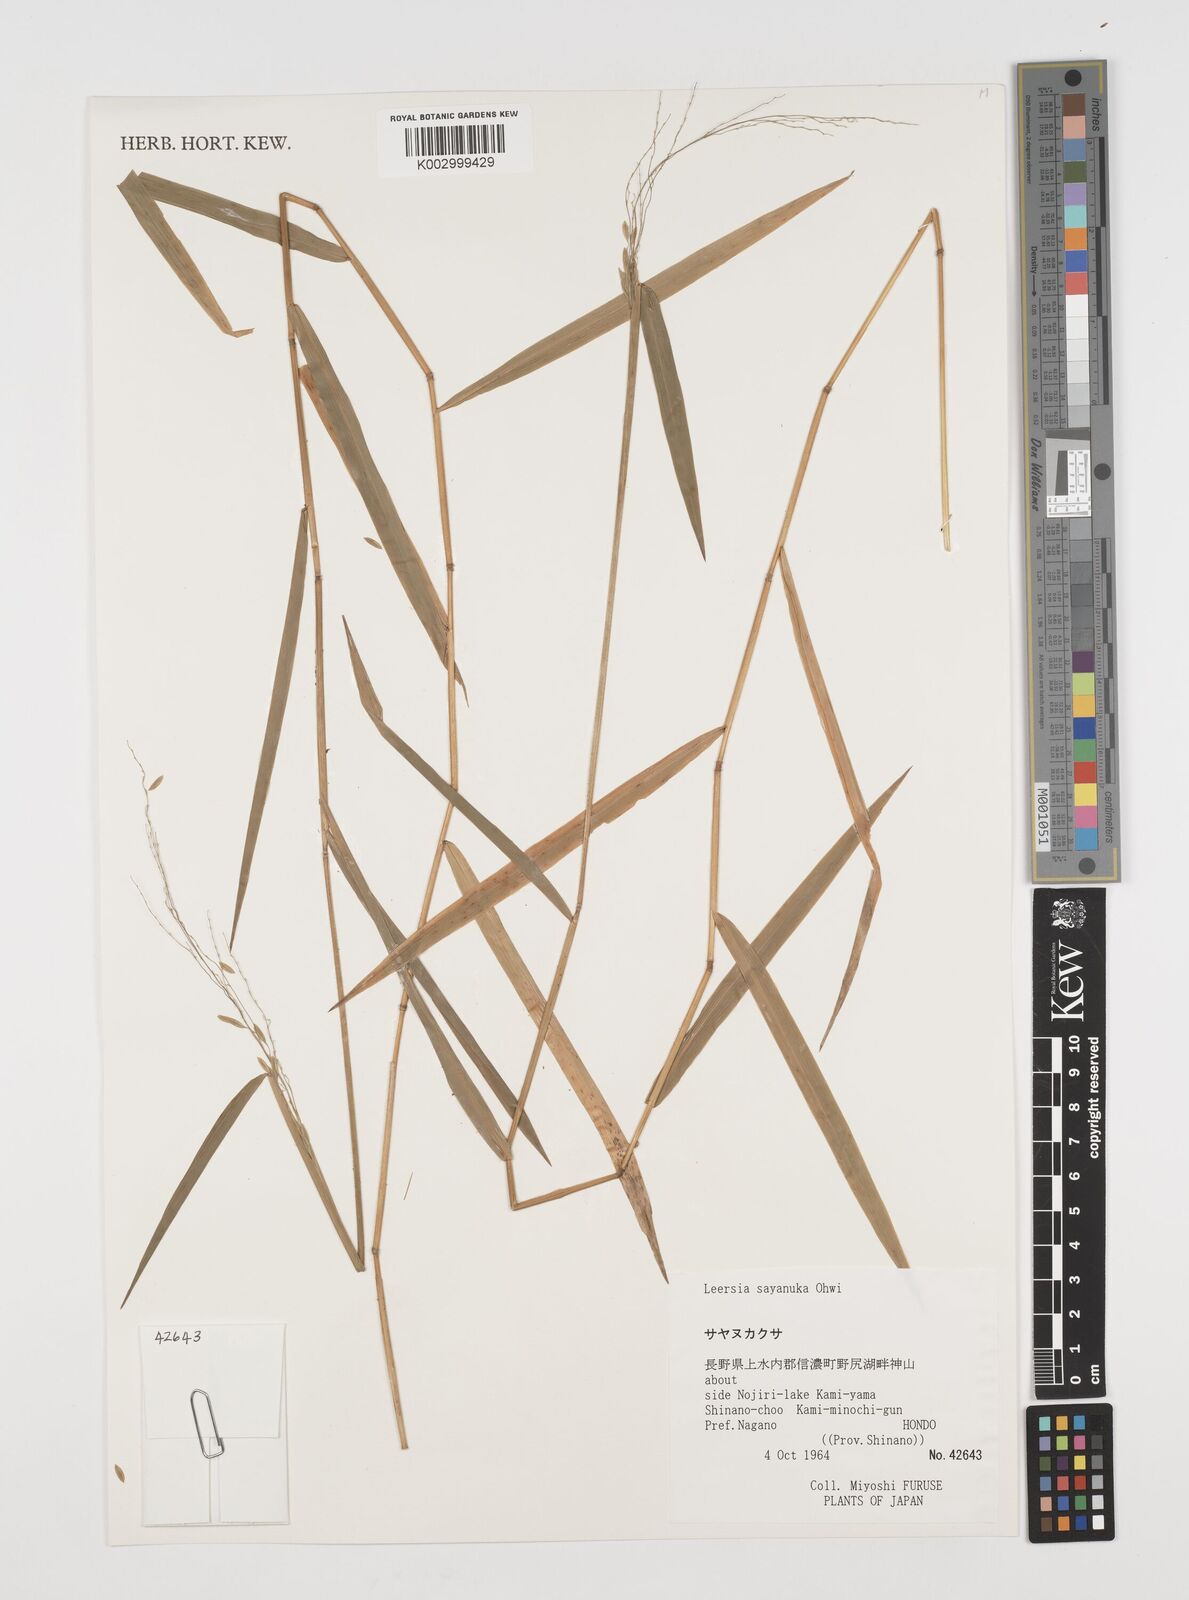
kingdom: Plantae
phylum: Tracheophyta
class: Liliopsida
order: Poales
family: Poaceae
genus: Leersia
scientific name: Leersia sayanuka
